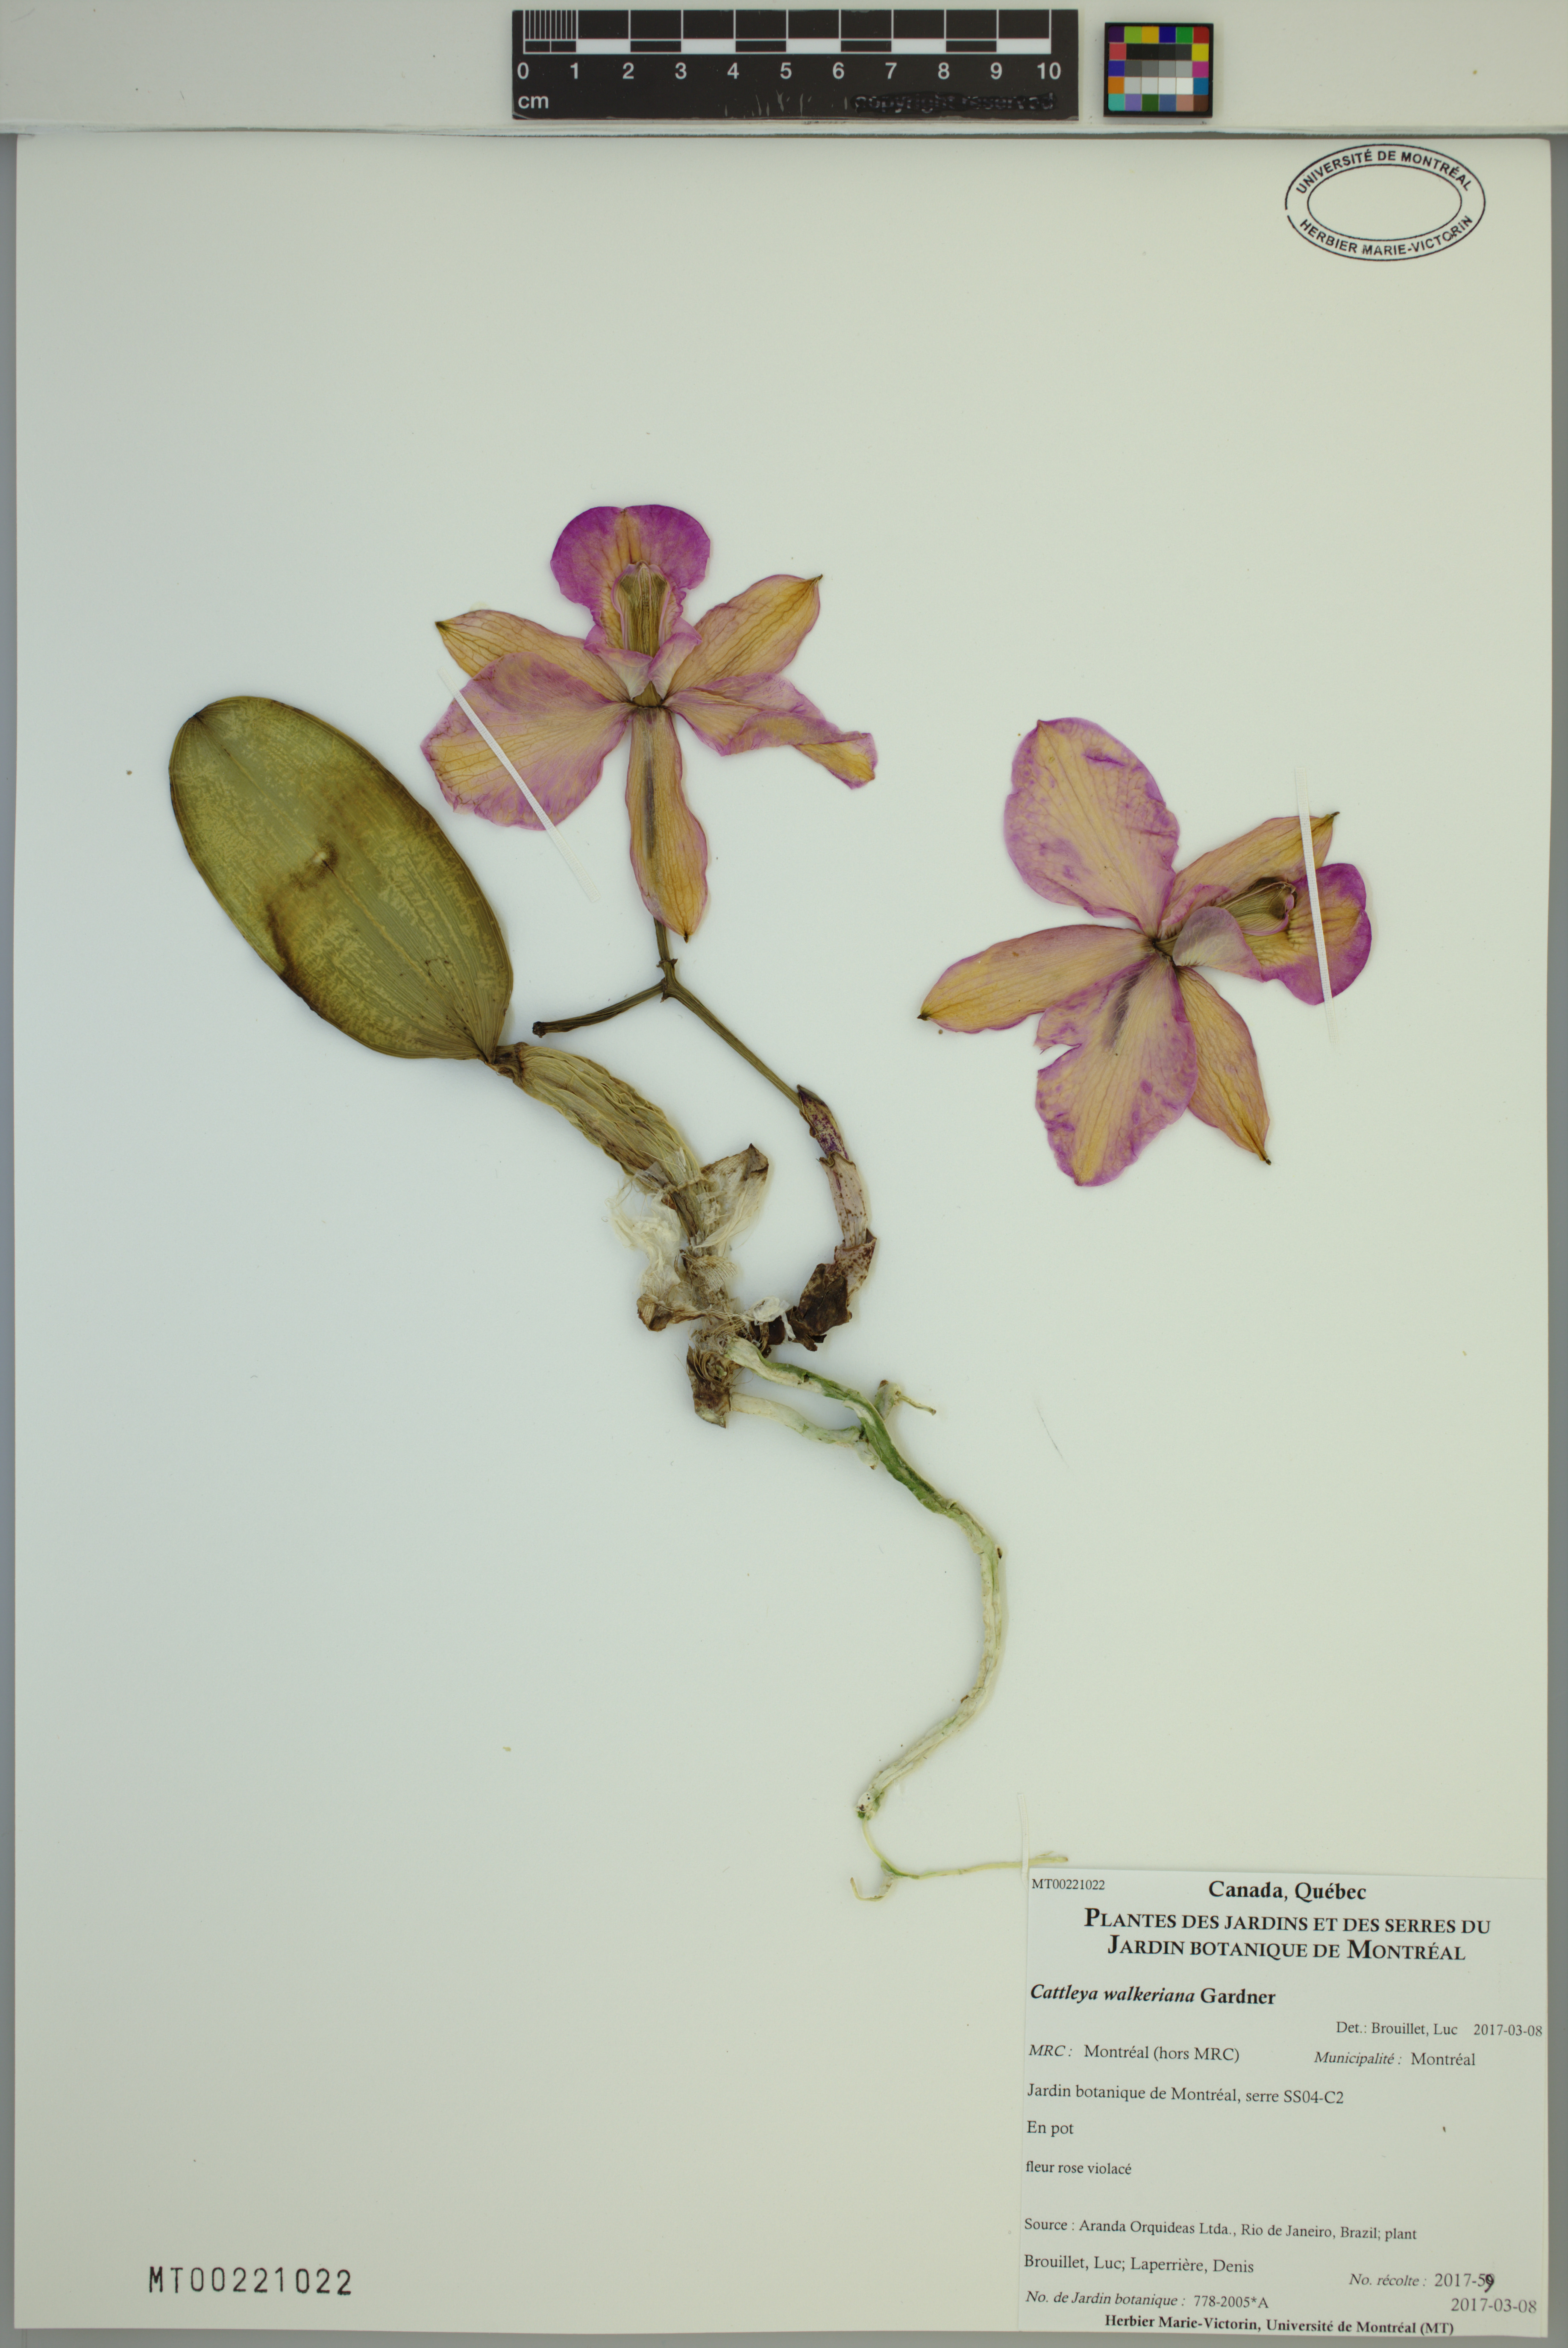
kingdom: Plantae
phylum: Tracheophyta
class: Liliopsida
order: Asparagales
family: Orchidaceae
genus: Cattleya
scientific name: Cattleya walkeriana
